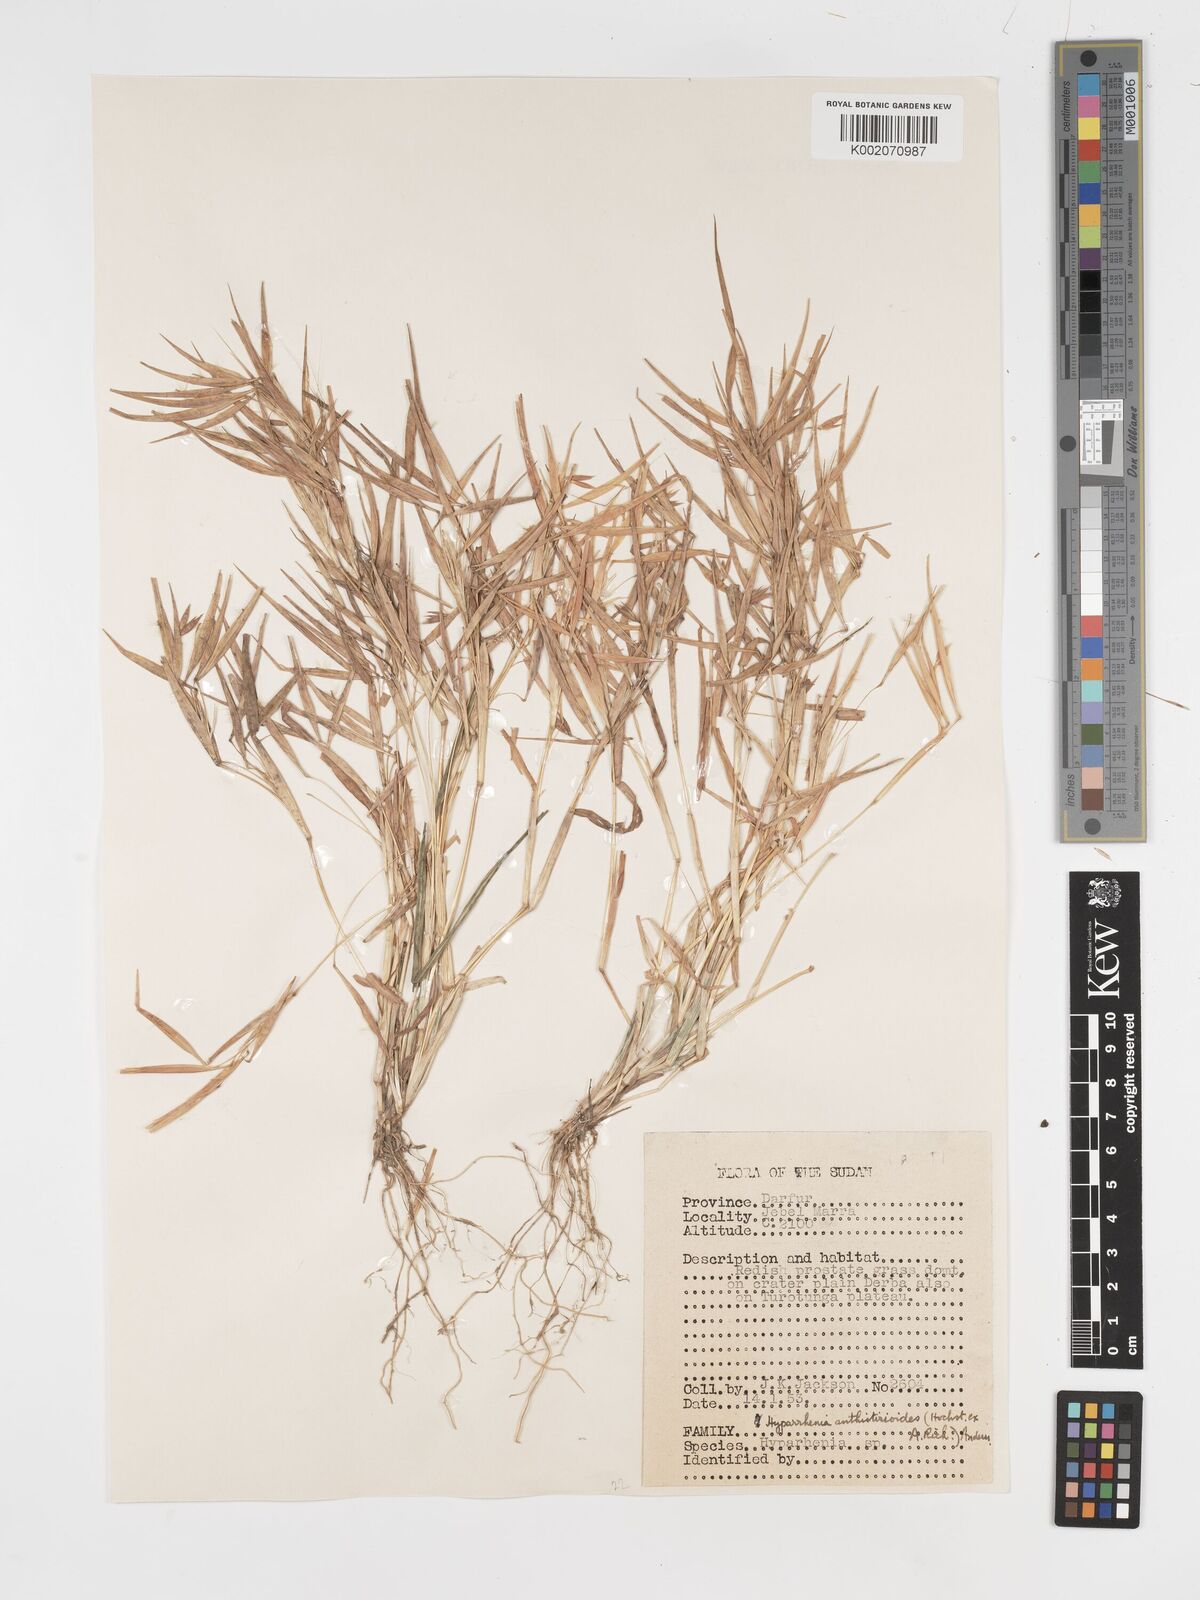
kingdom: Plantae
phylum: Tracheophyta
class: Liliopsida
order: Poales
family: Poaceae
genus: Hyparrhenia
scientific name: Hyparrhenia anthistirioides
